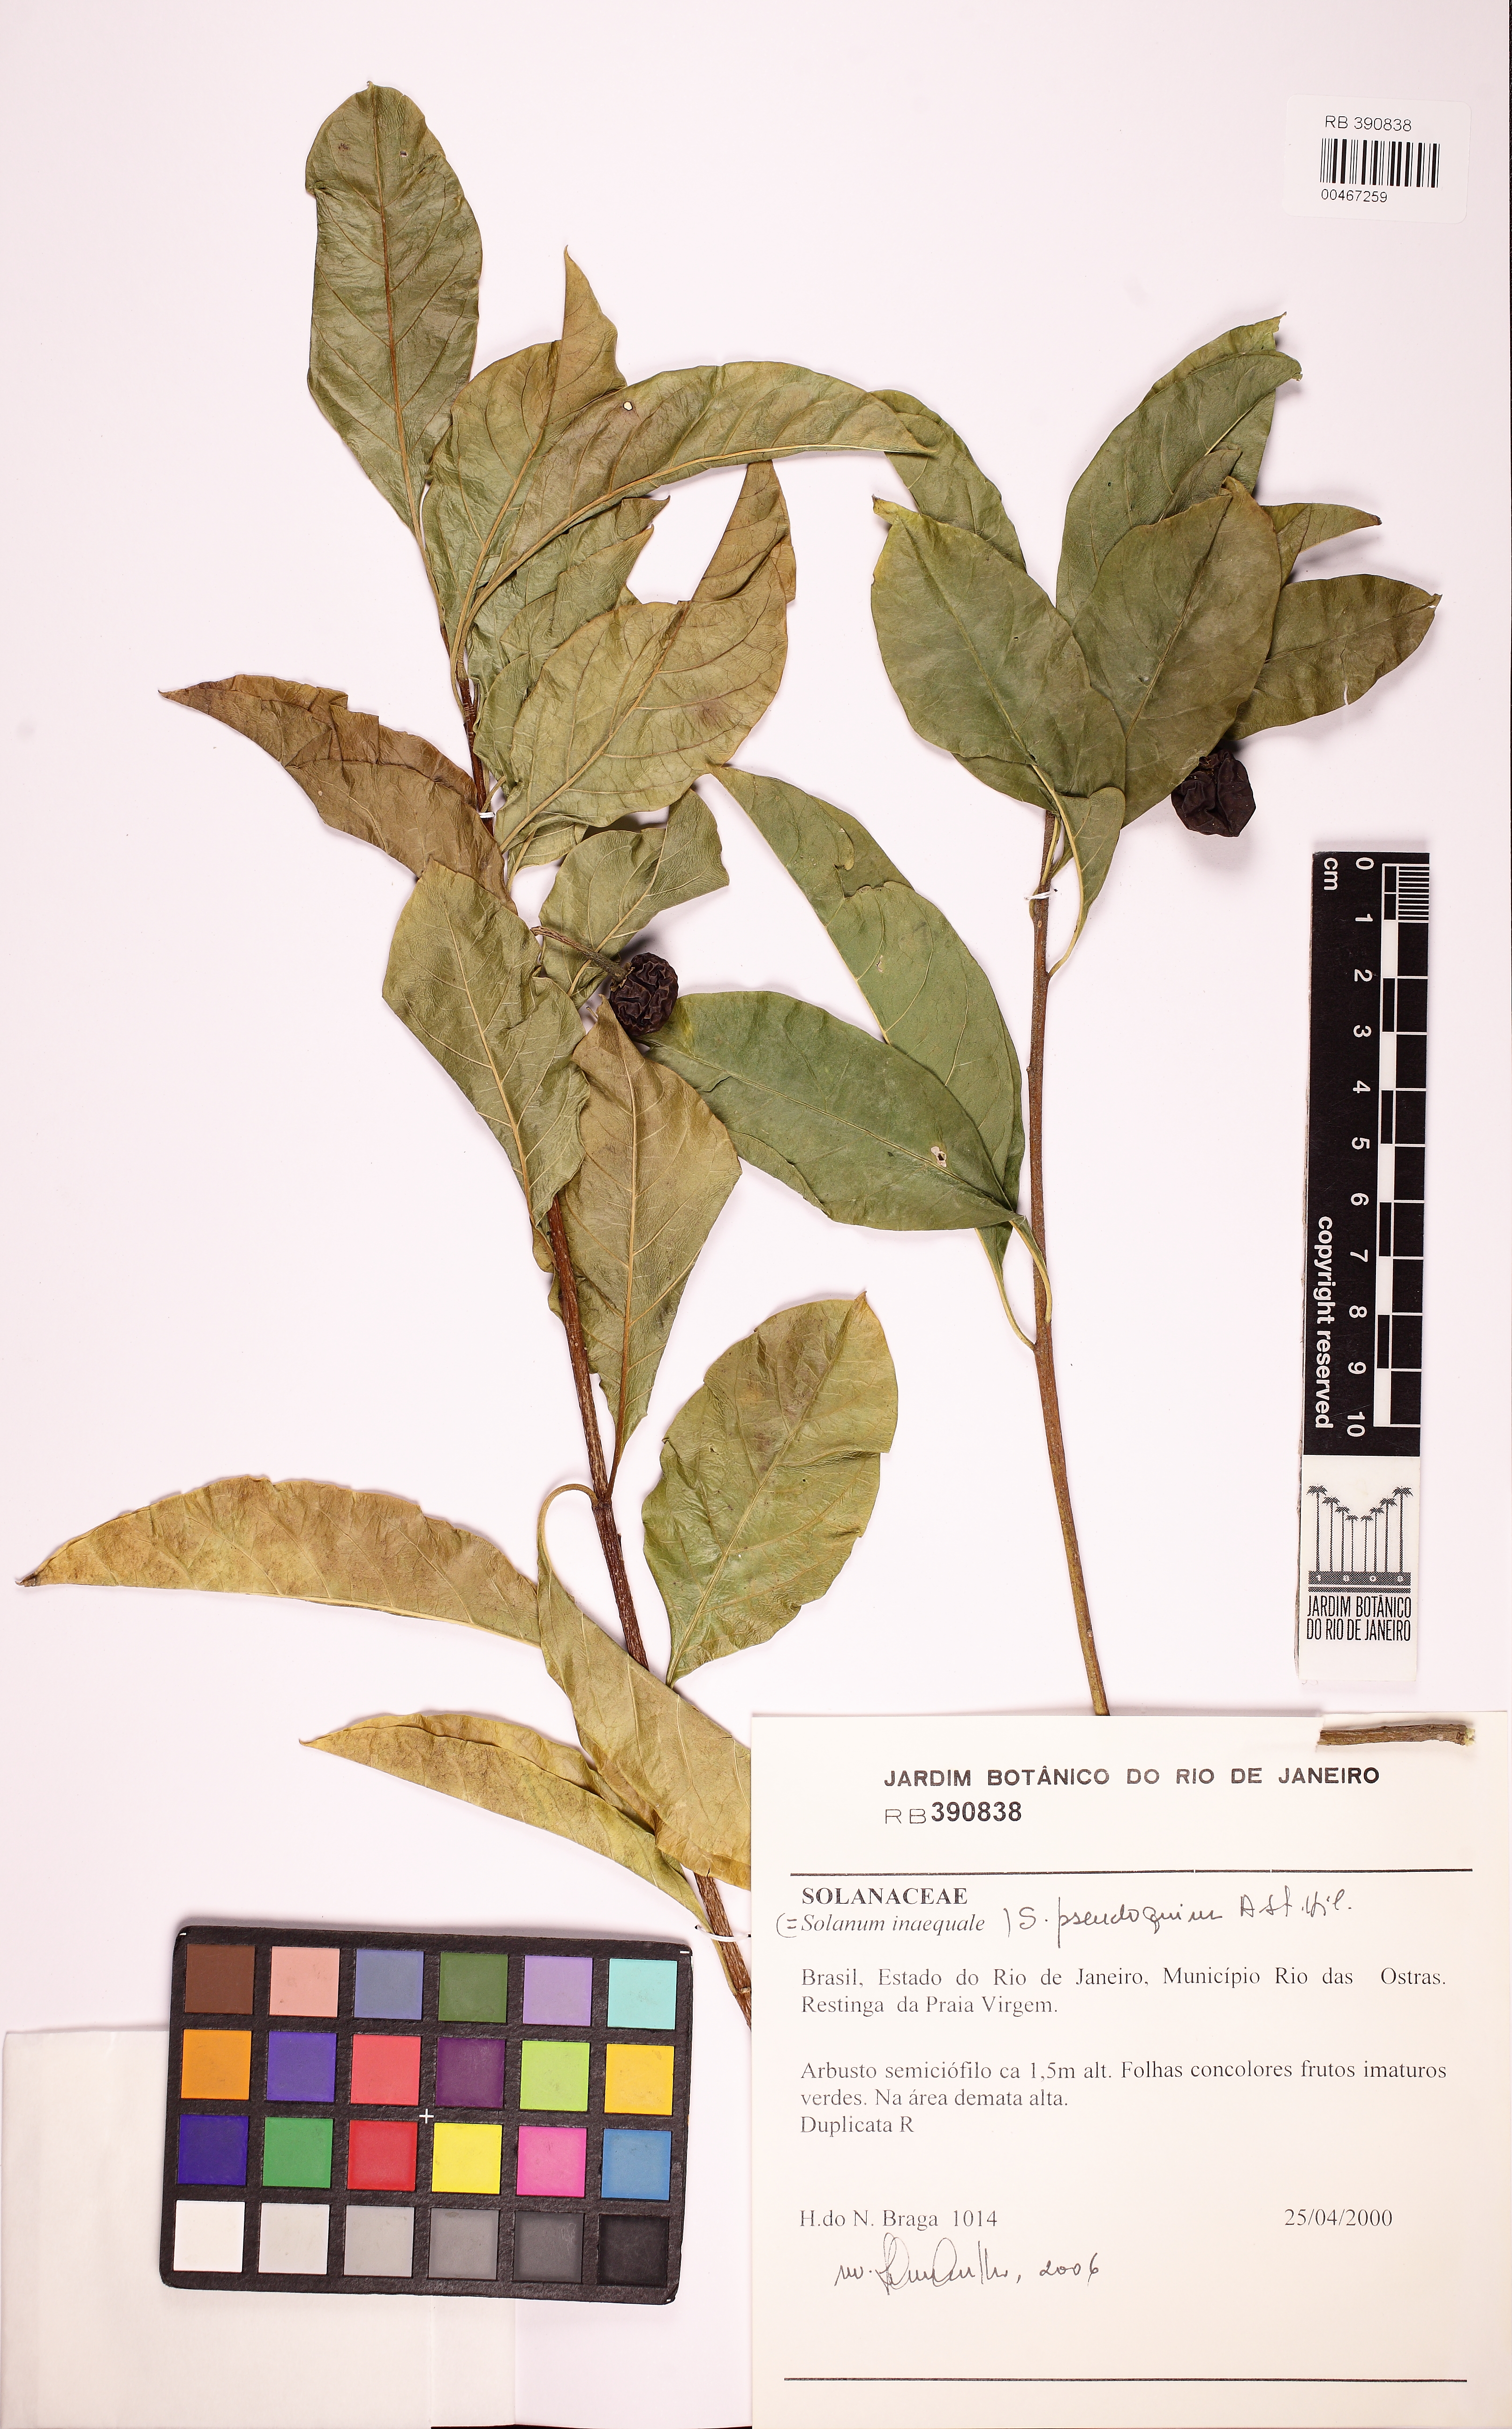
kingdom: Plantae
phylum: Tracheophyta
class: Magnoliopsida
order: Solanales
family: Solanaceae
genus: Solanum
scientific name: Solanum pseudoquina
